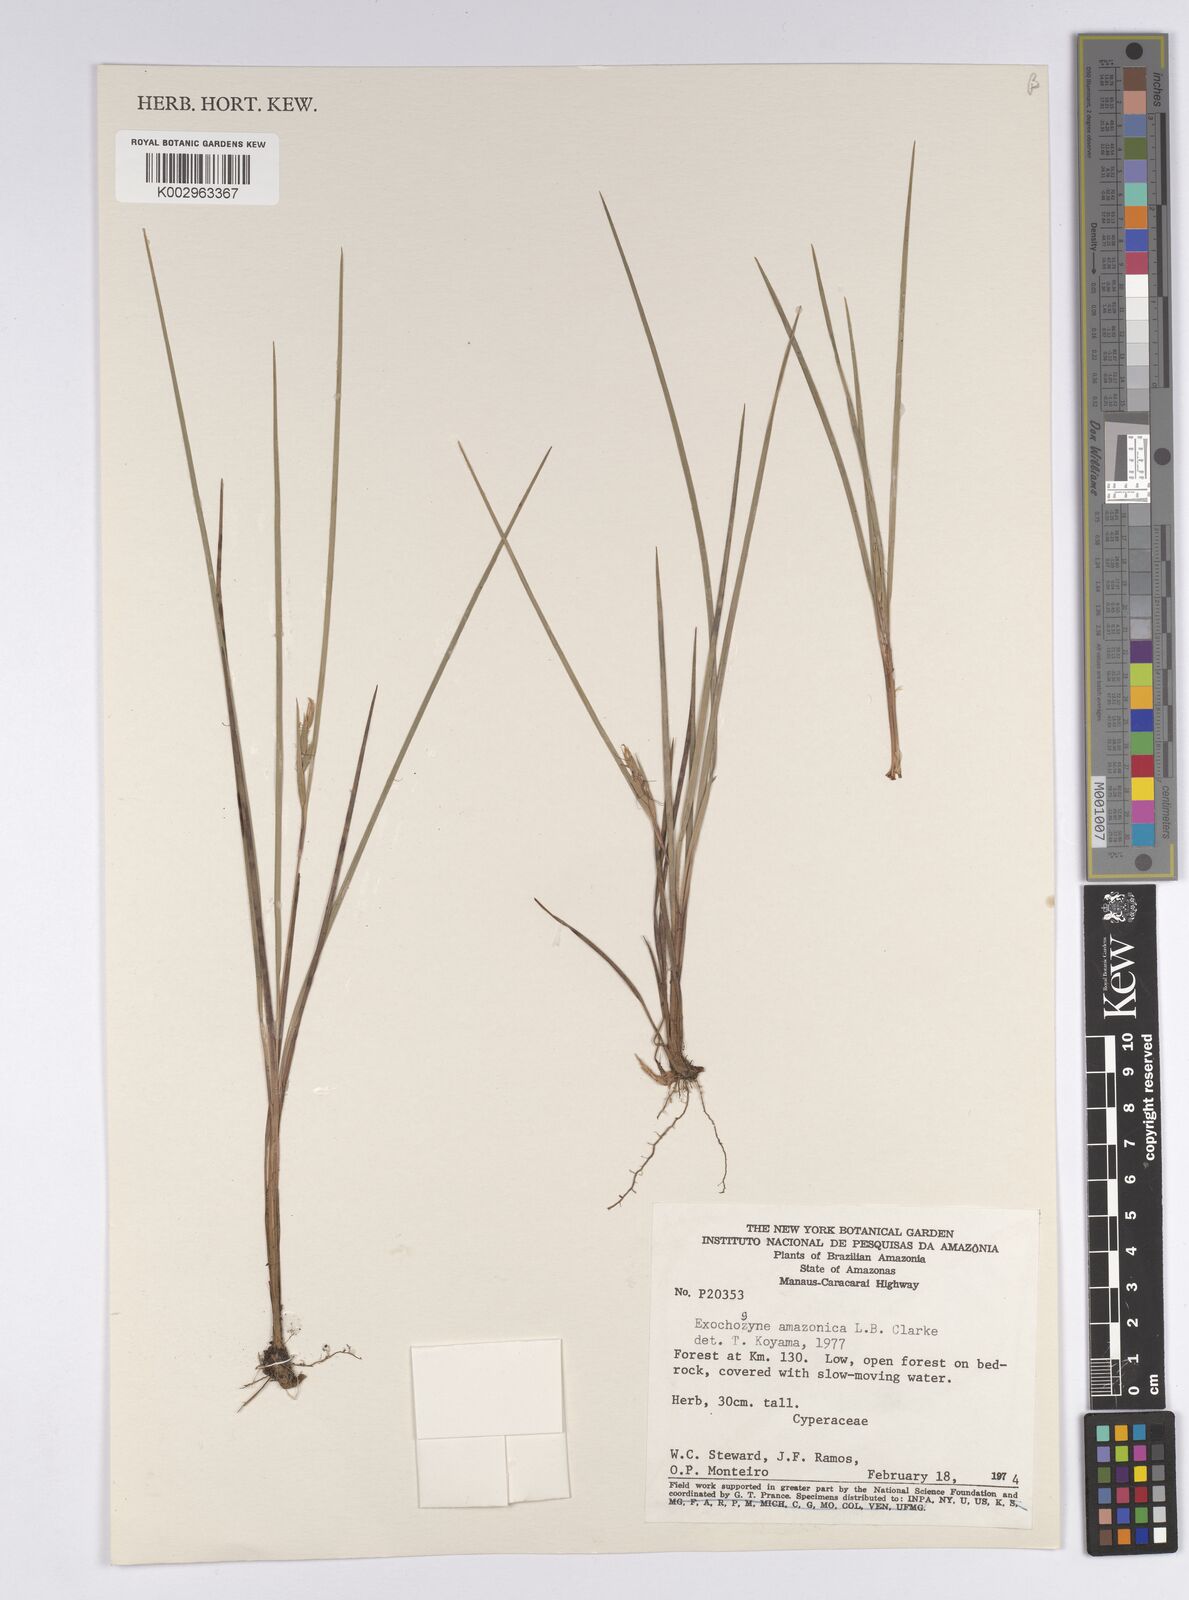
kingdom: Plantae
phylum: Tracheophyta
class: Liliopsida
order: Poales
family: Cyperaceae
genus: Exochogyne
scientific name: Exochogyne amazonica
